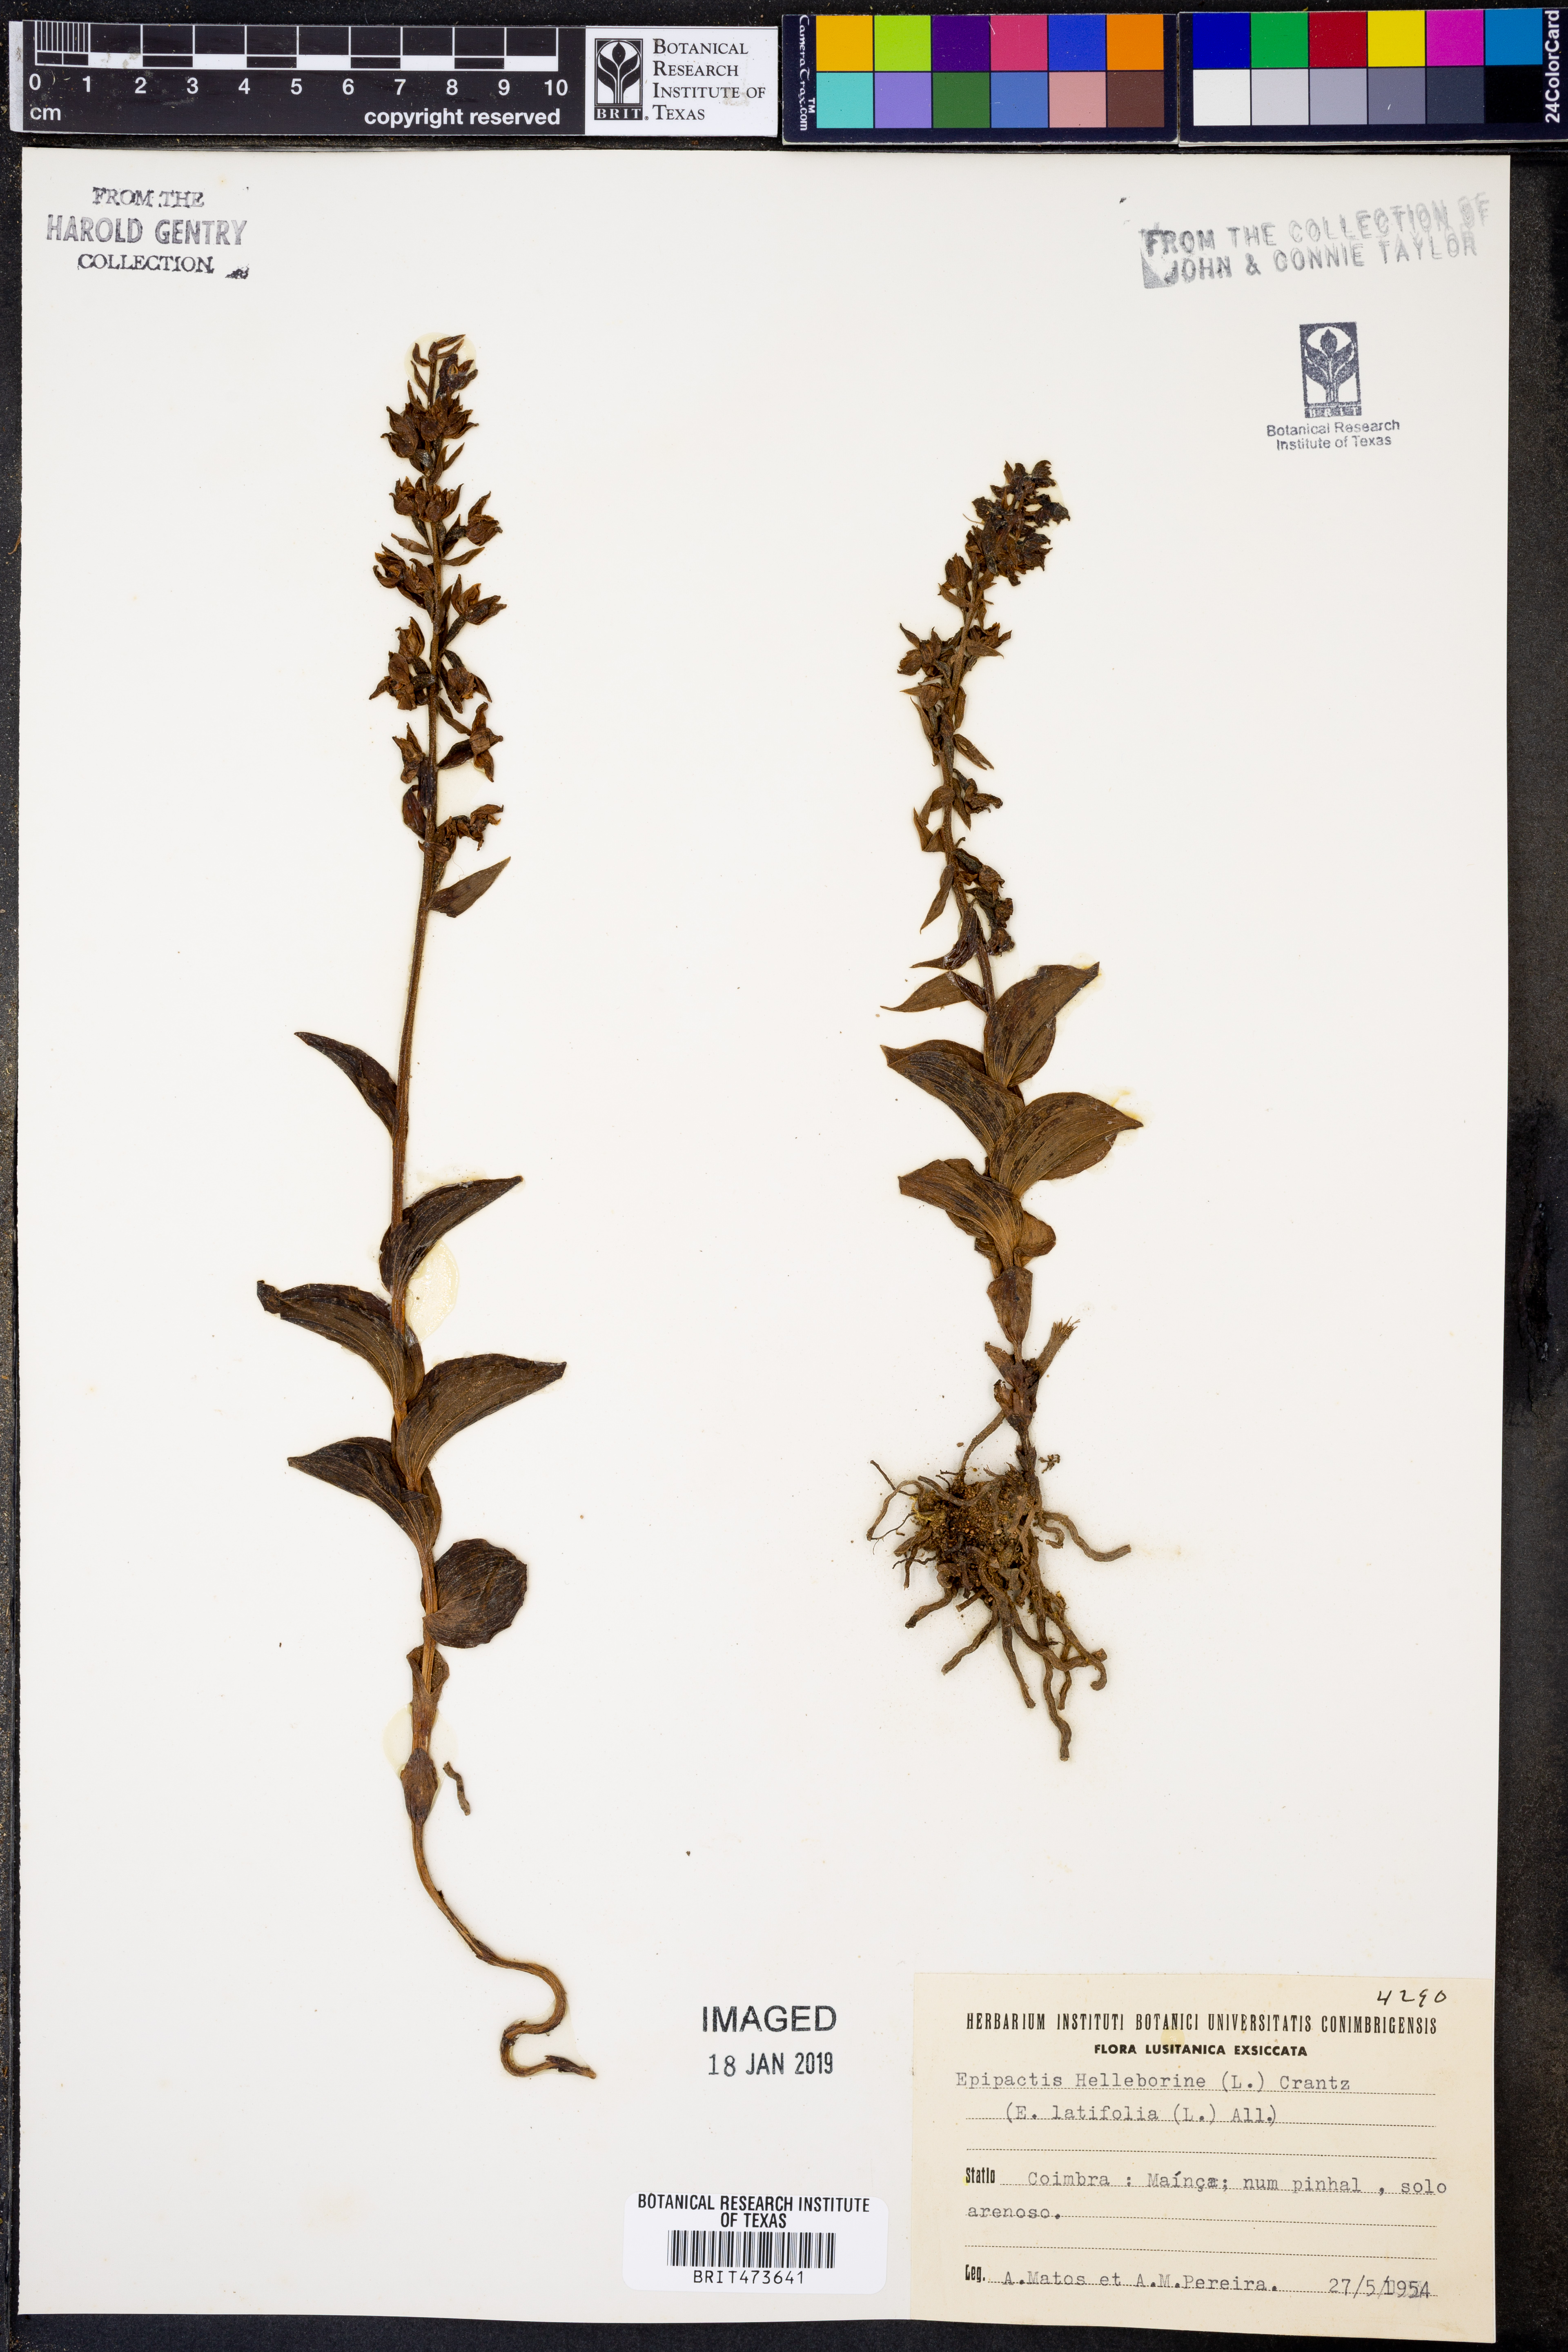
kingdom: Plantae
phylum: Tracheophyta
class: Liliopsida
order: Asparagales
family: Orchidaceae
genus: Epipactis
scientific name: Epipactis helleborine
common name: Broad-leaved helleborine
